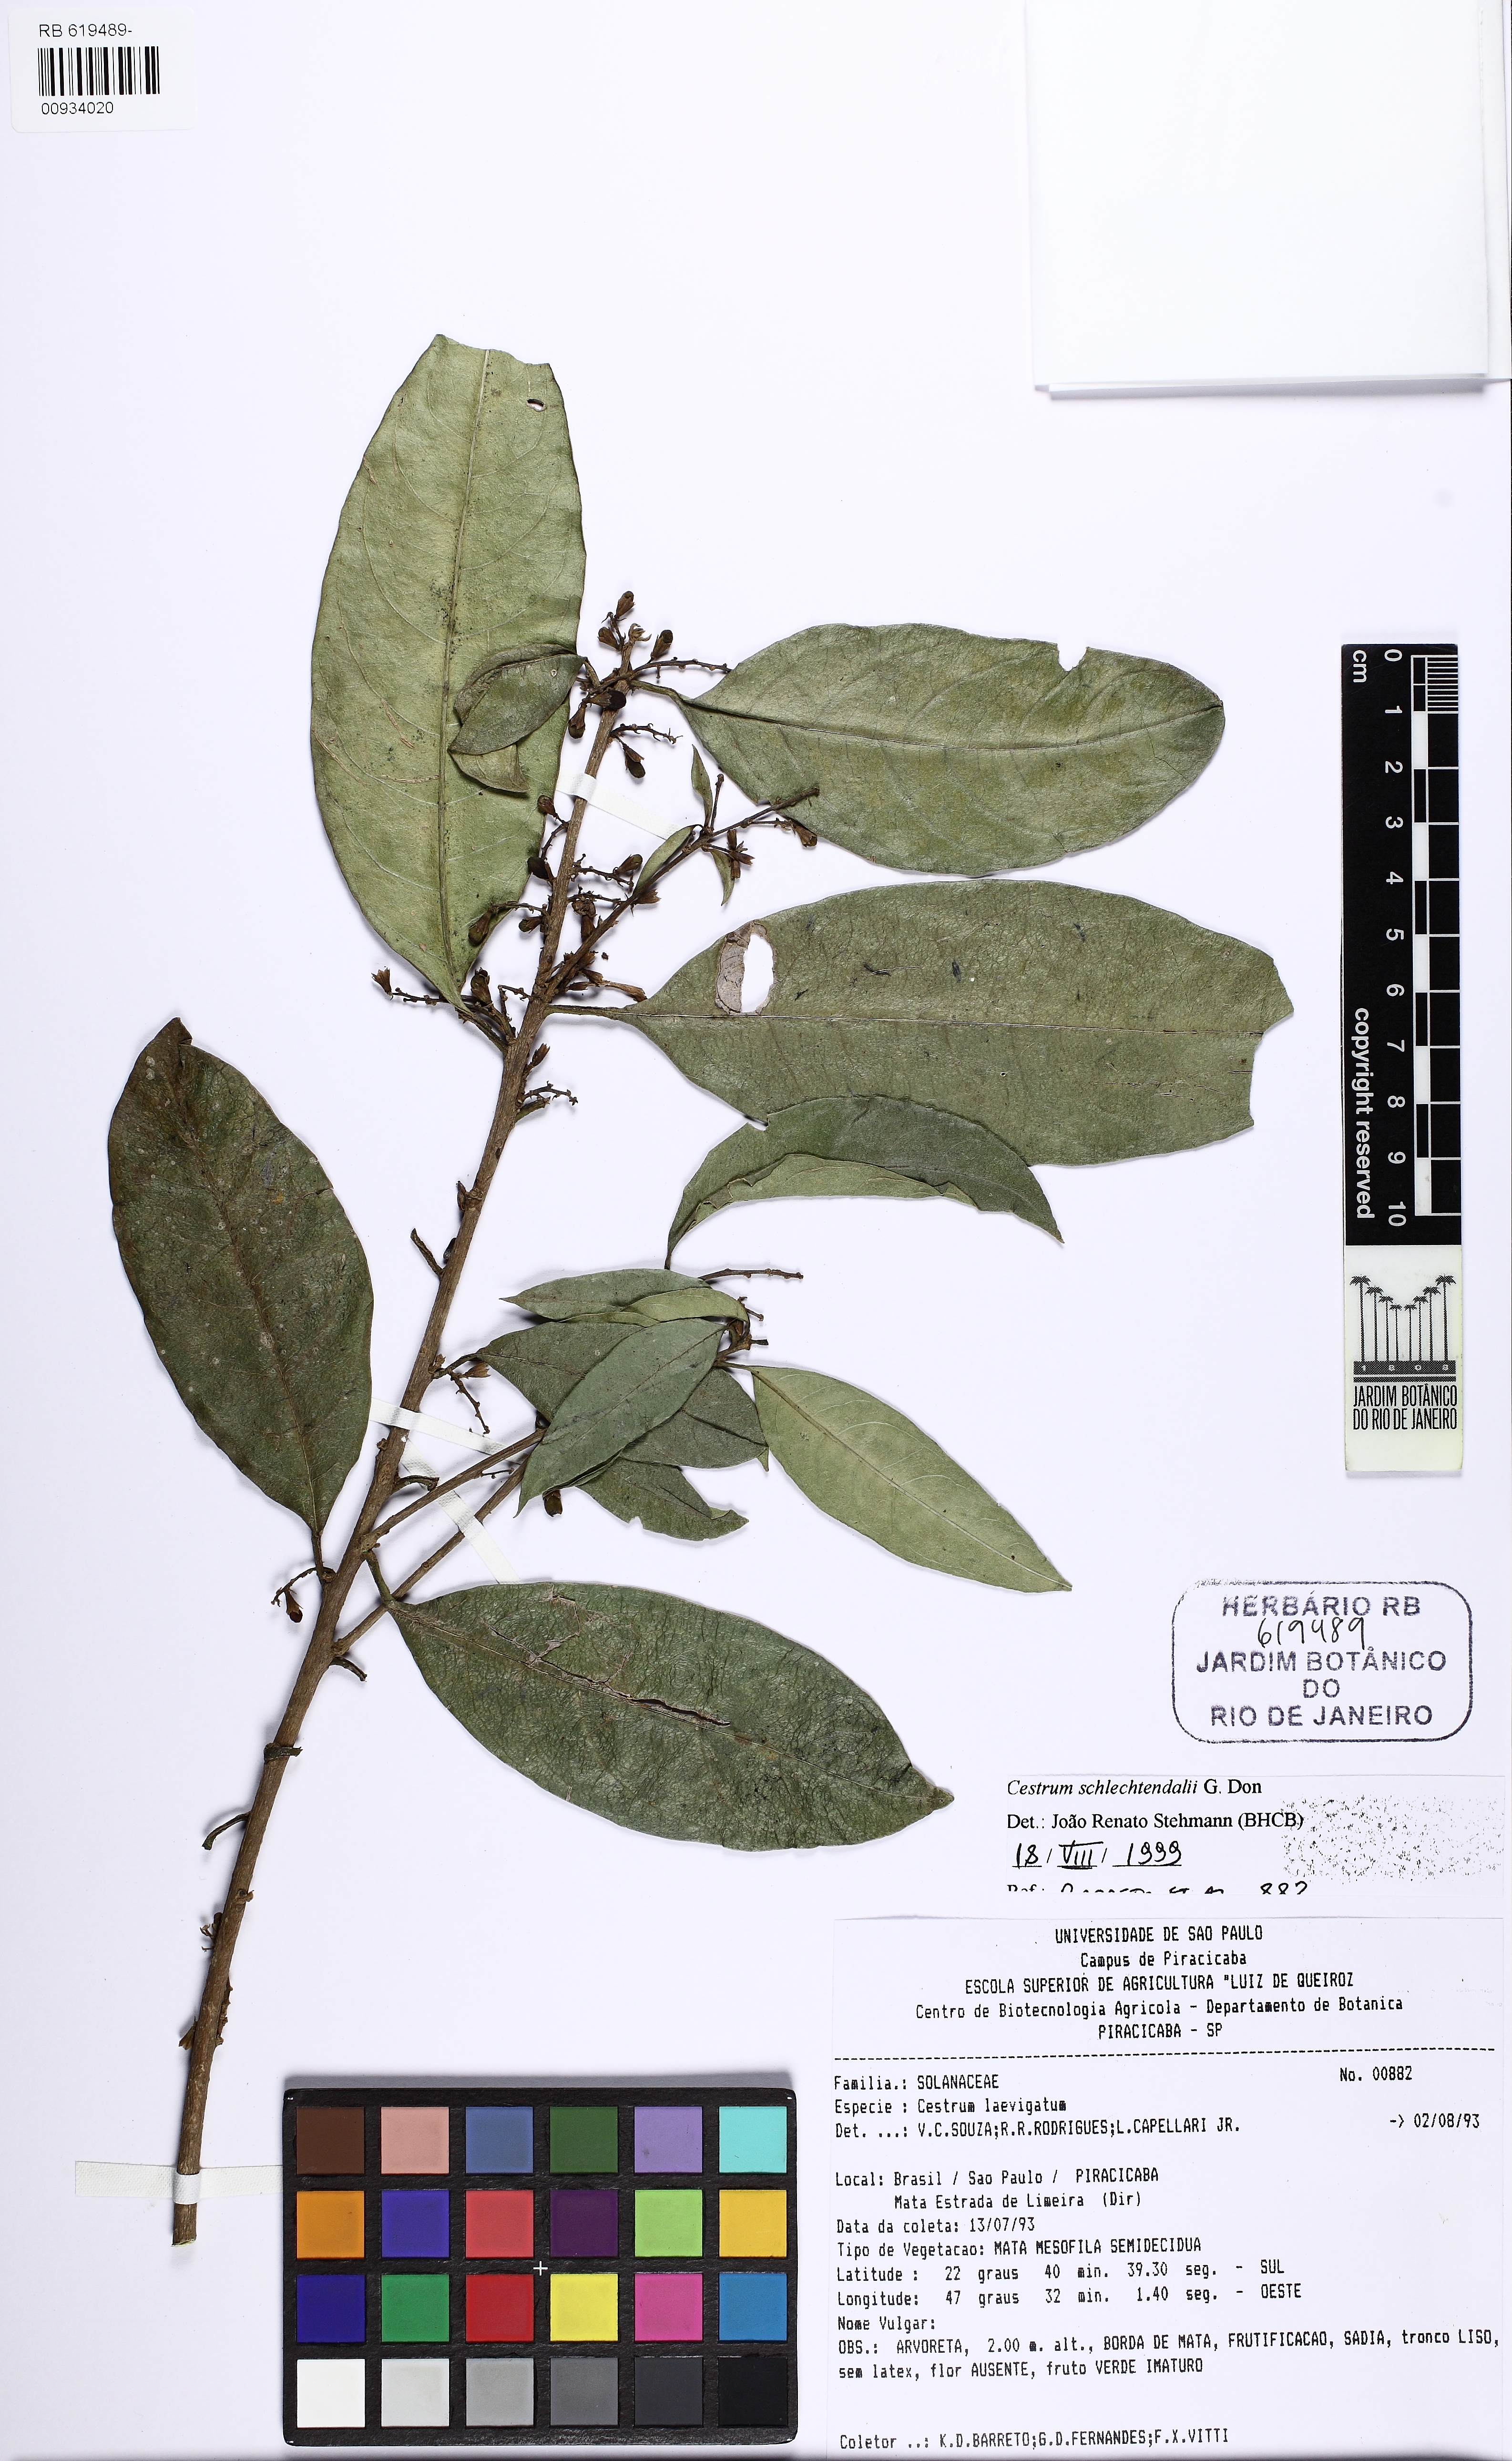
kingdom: Plantae
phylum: Tracheophyta
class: Magnoliopsida
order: Solanales
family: Solanaceae
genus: Cestrum
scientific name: Cestrum schlechtendalii
